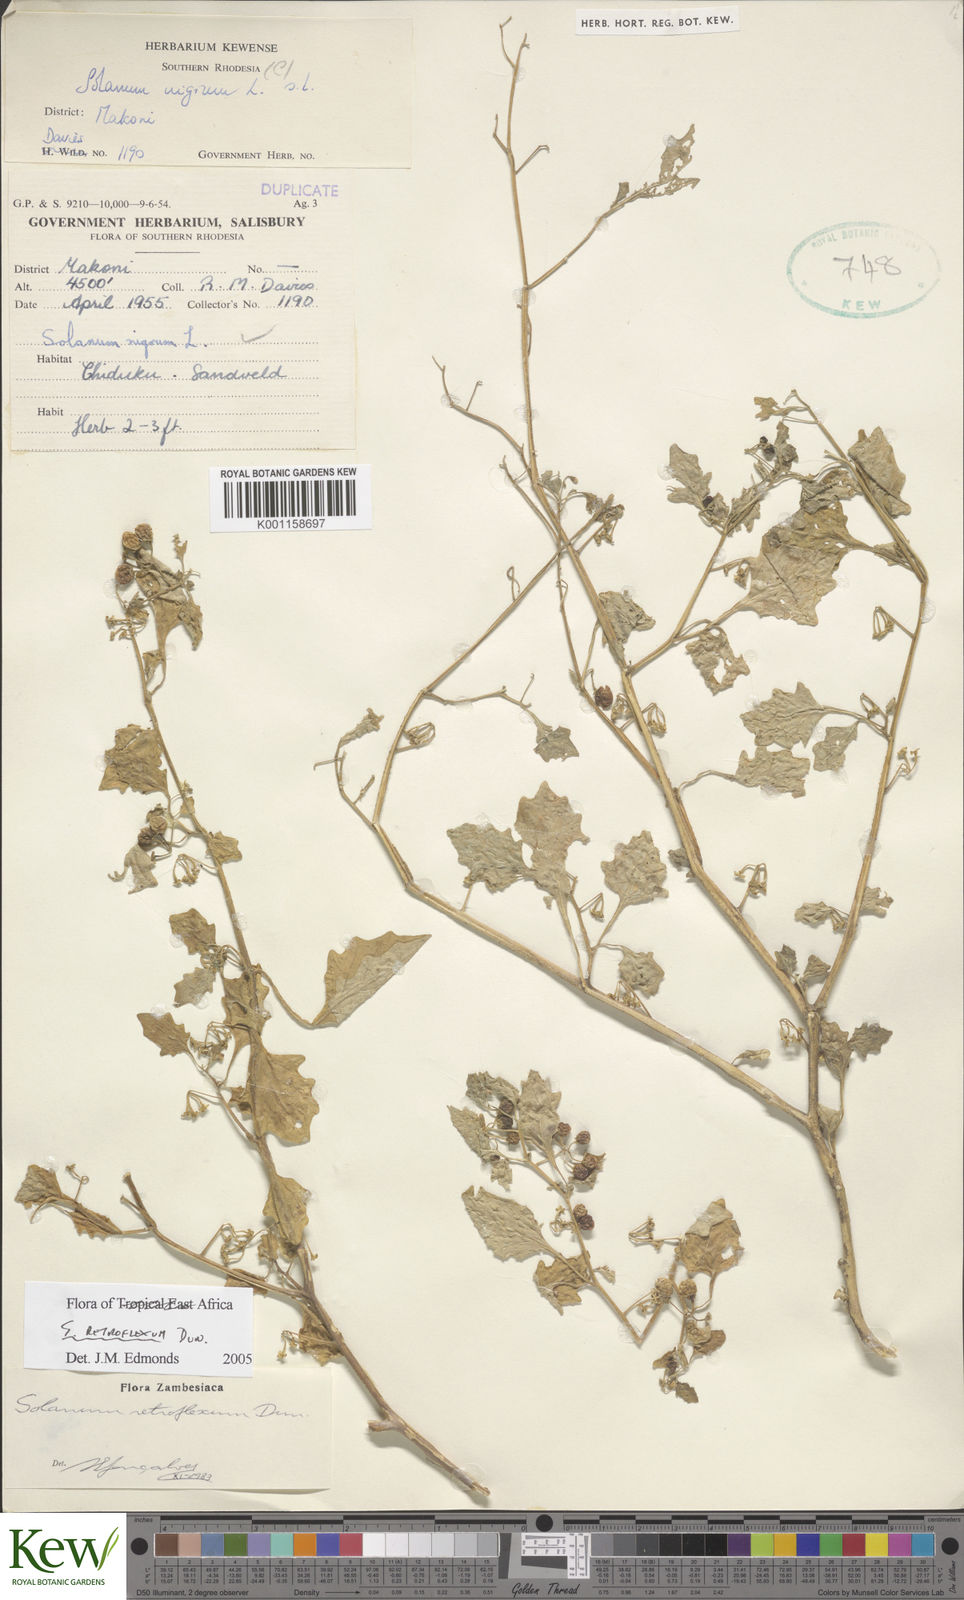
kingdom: Plantae
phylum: Tracheophyta
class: Magnoliopsida
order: Solanales
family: Solanaceae
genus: Solanum
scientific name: Solanum retroflexum
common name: Wonderberry
